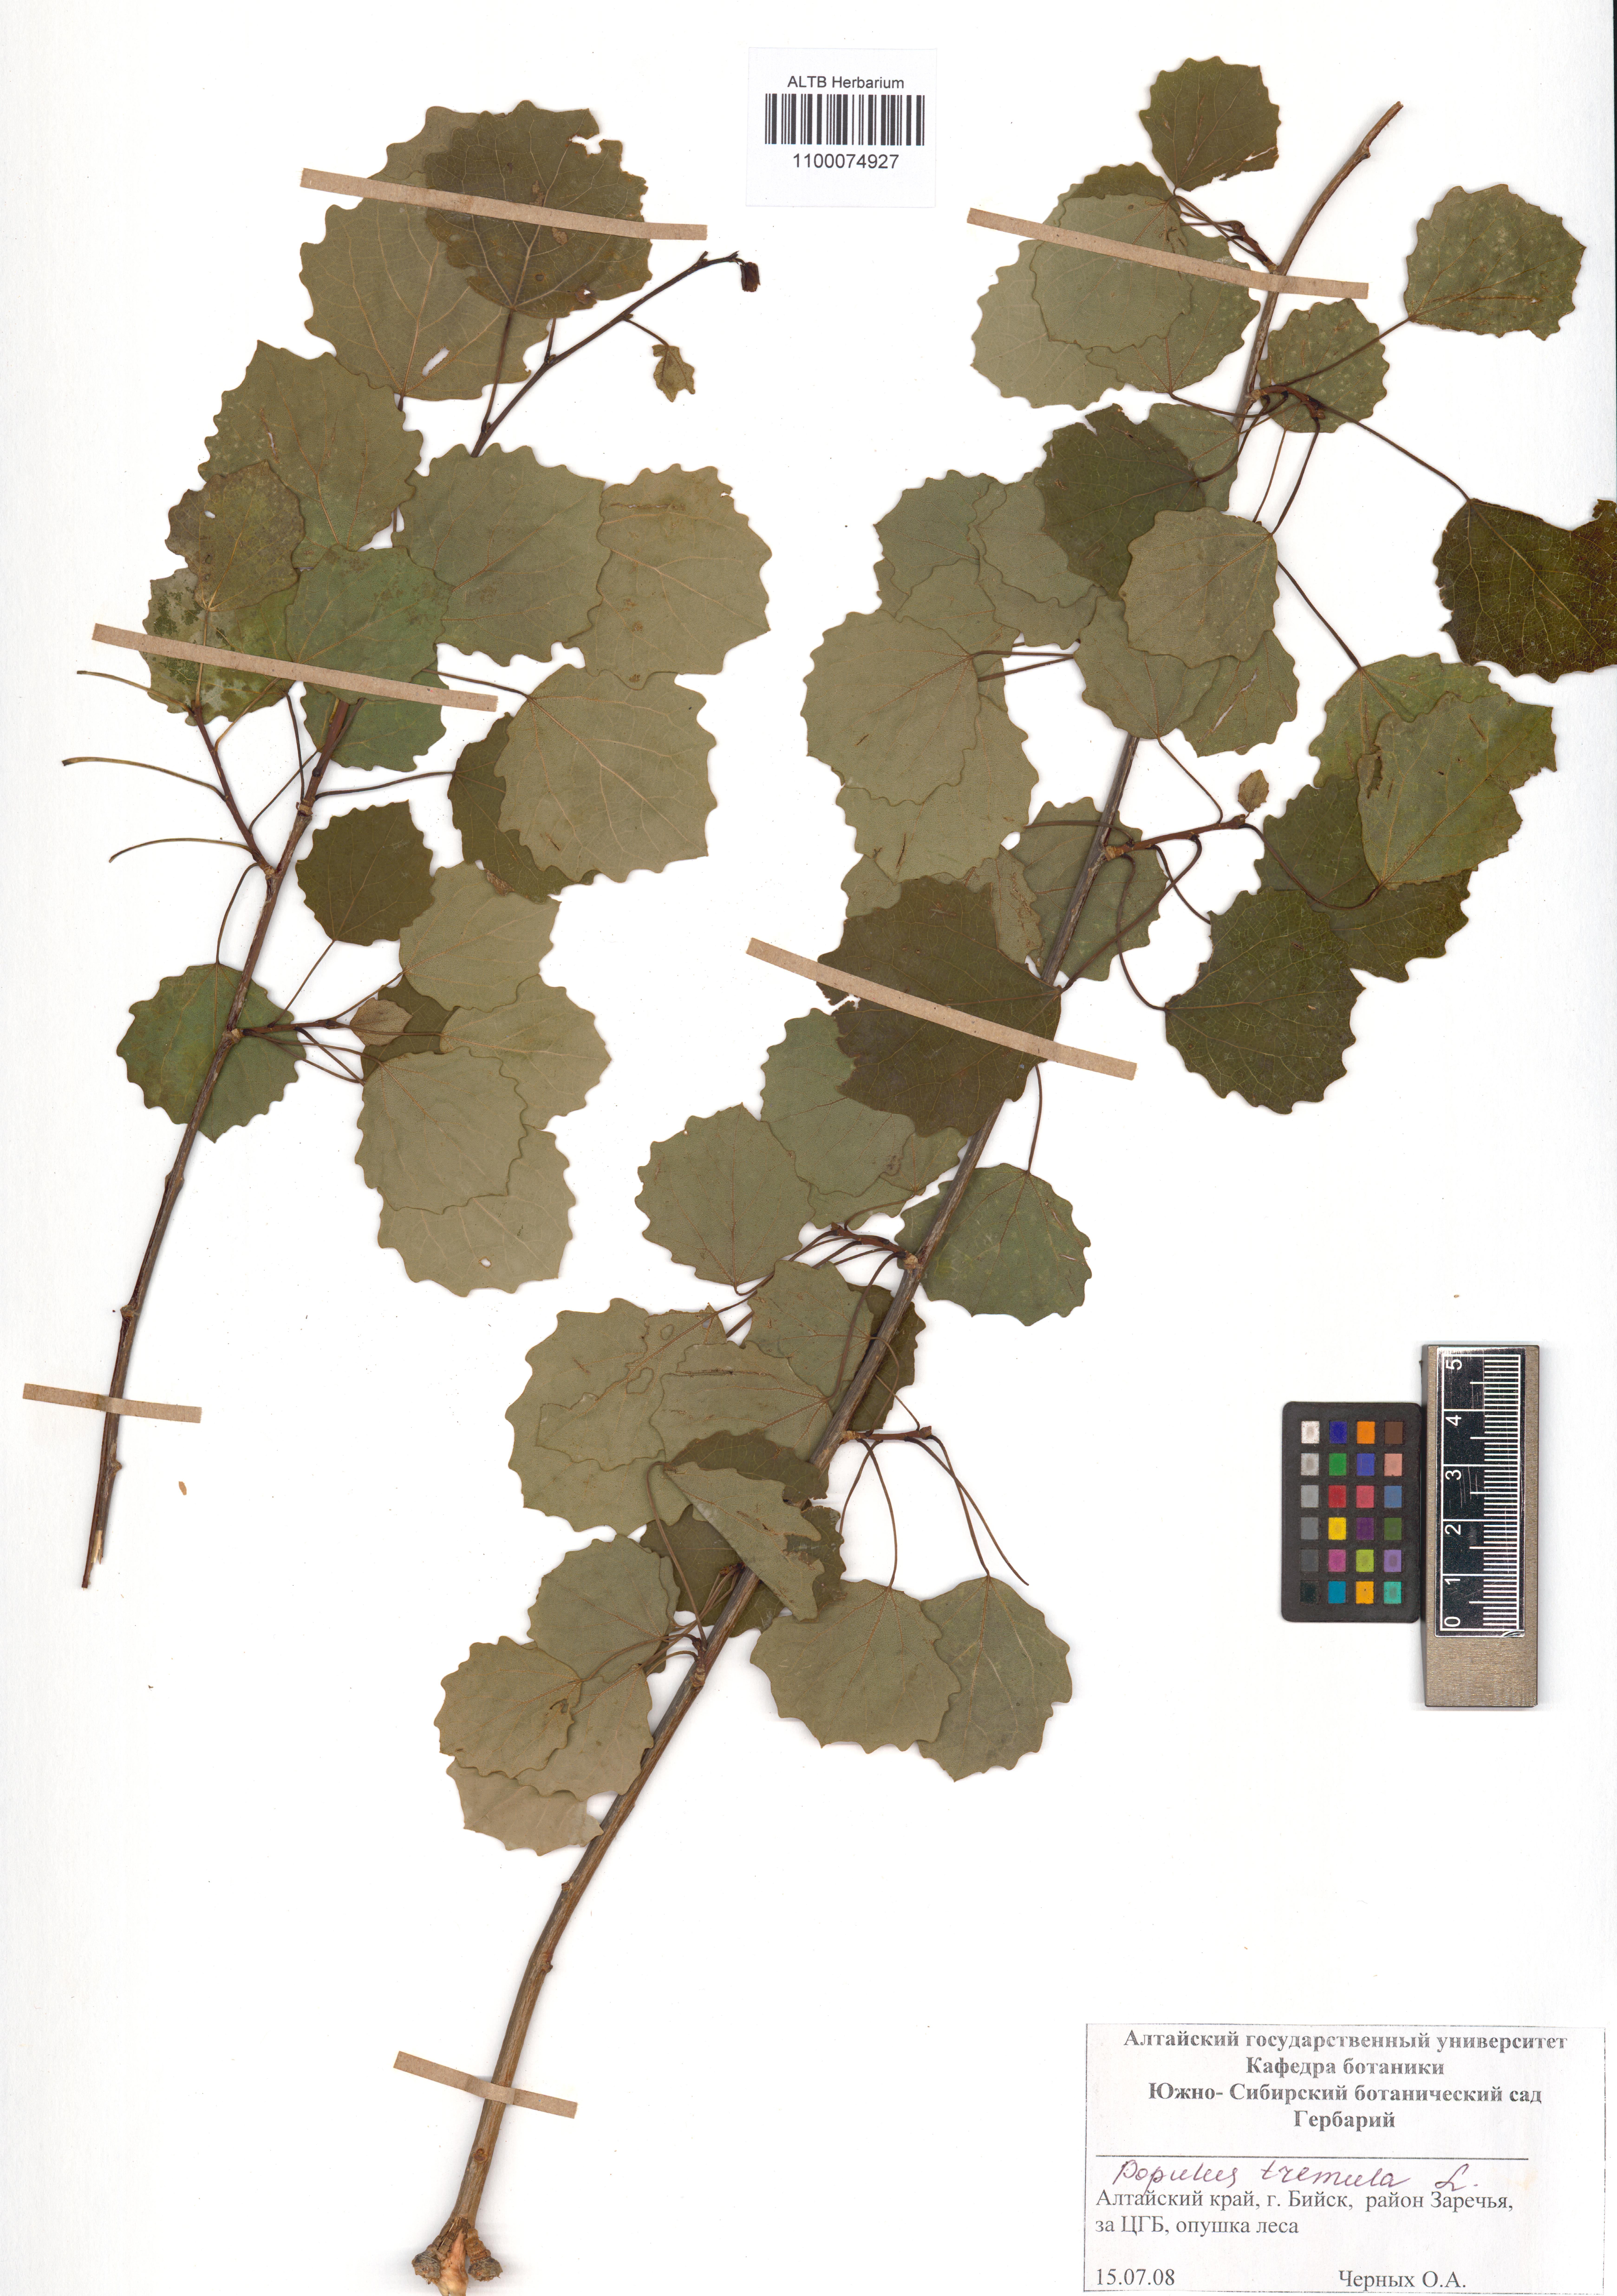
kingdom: Plantae
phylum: Tracheophyta
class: Magnoliopsida
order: Malpighiales
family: Salicaceae
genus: Populus
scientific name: Populus tremula
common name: European aspen
